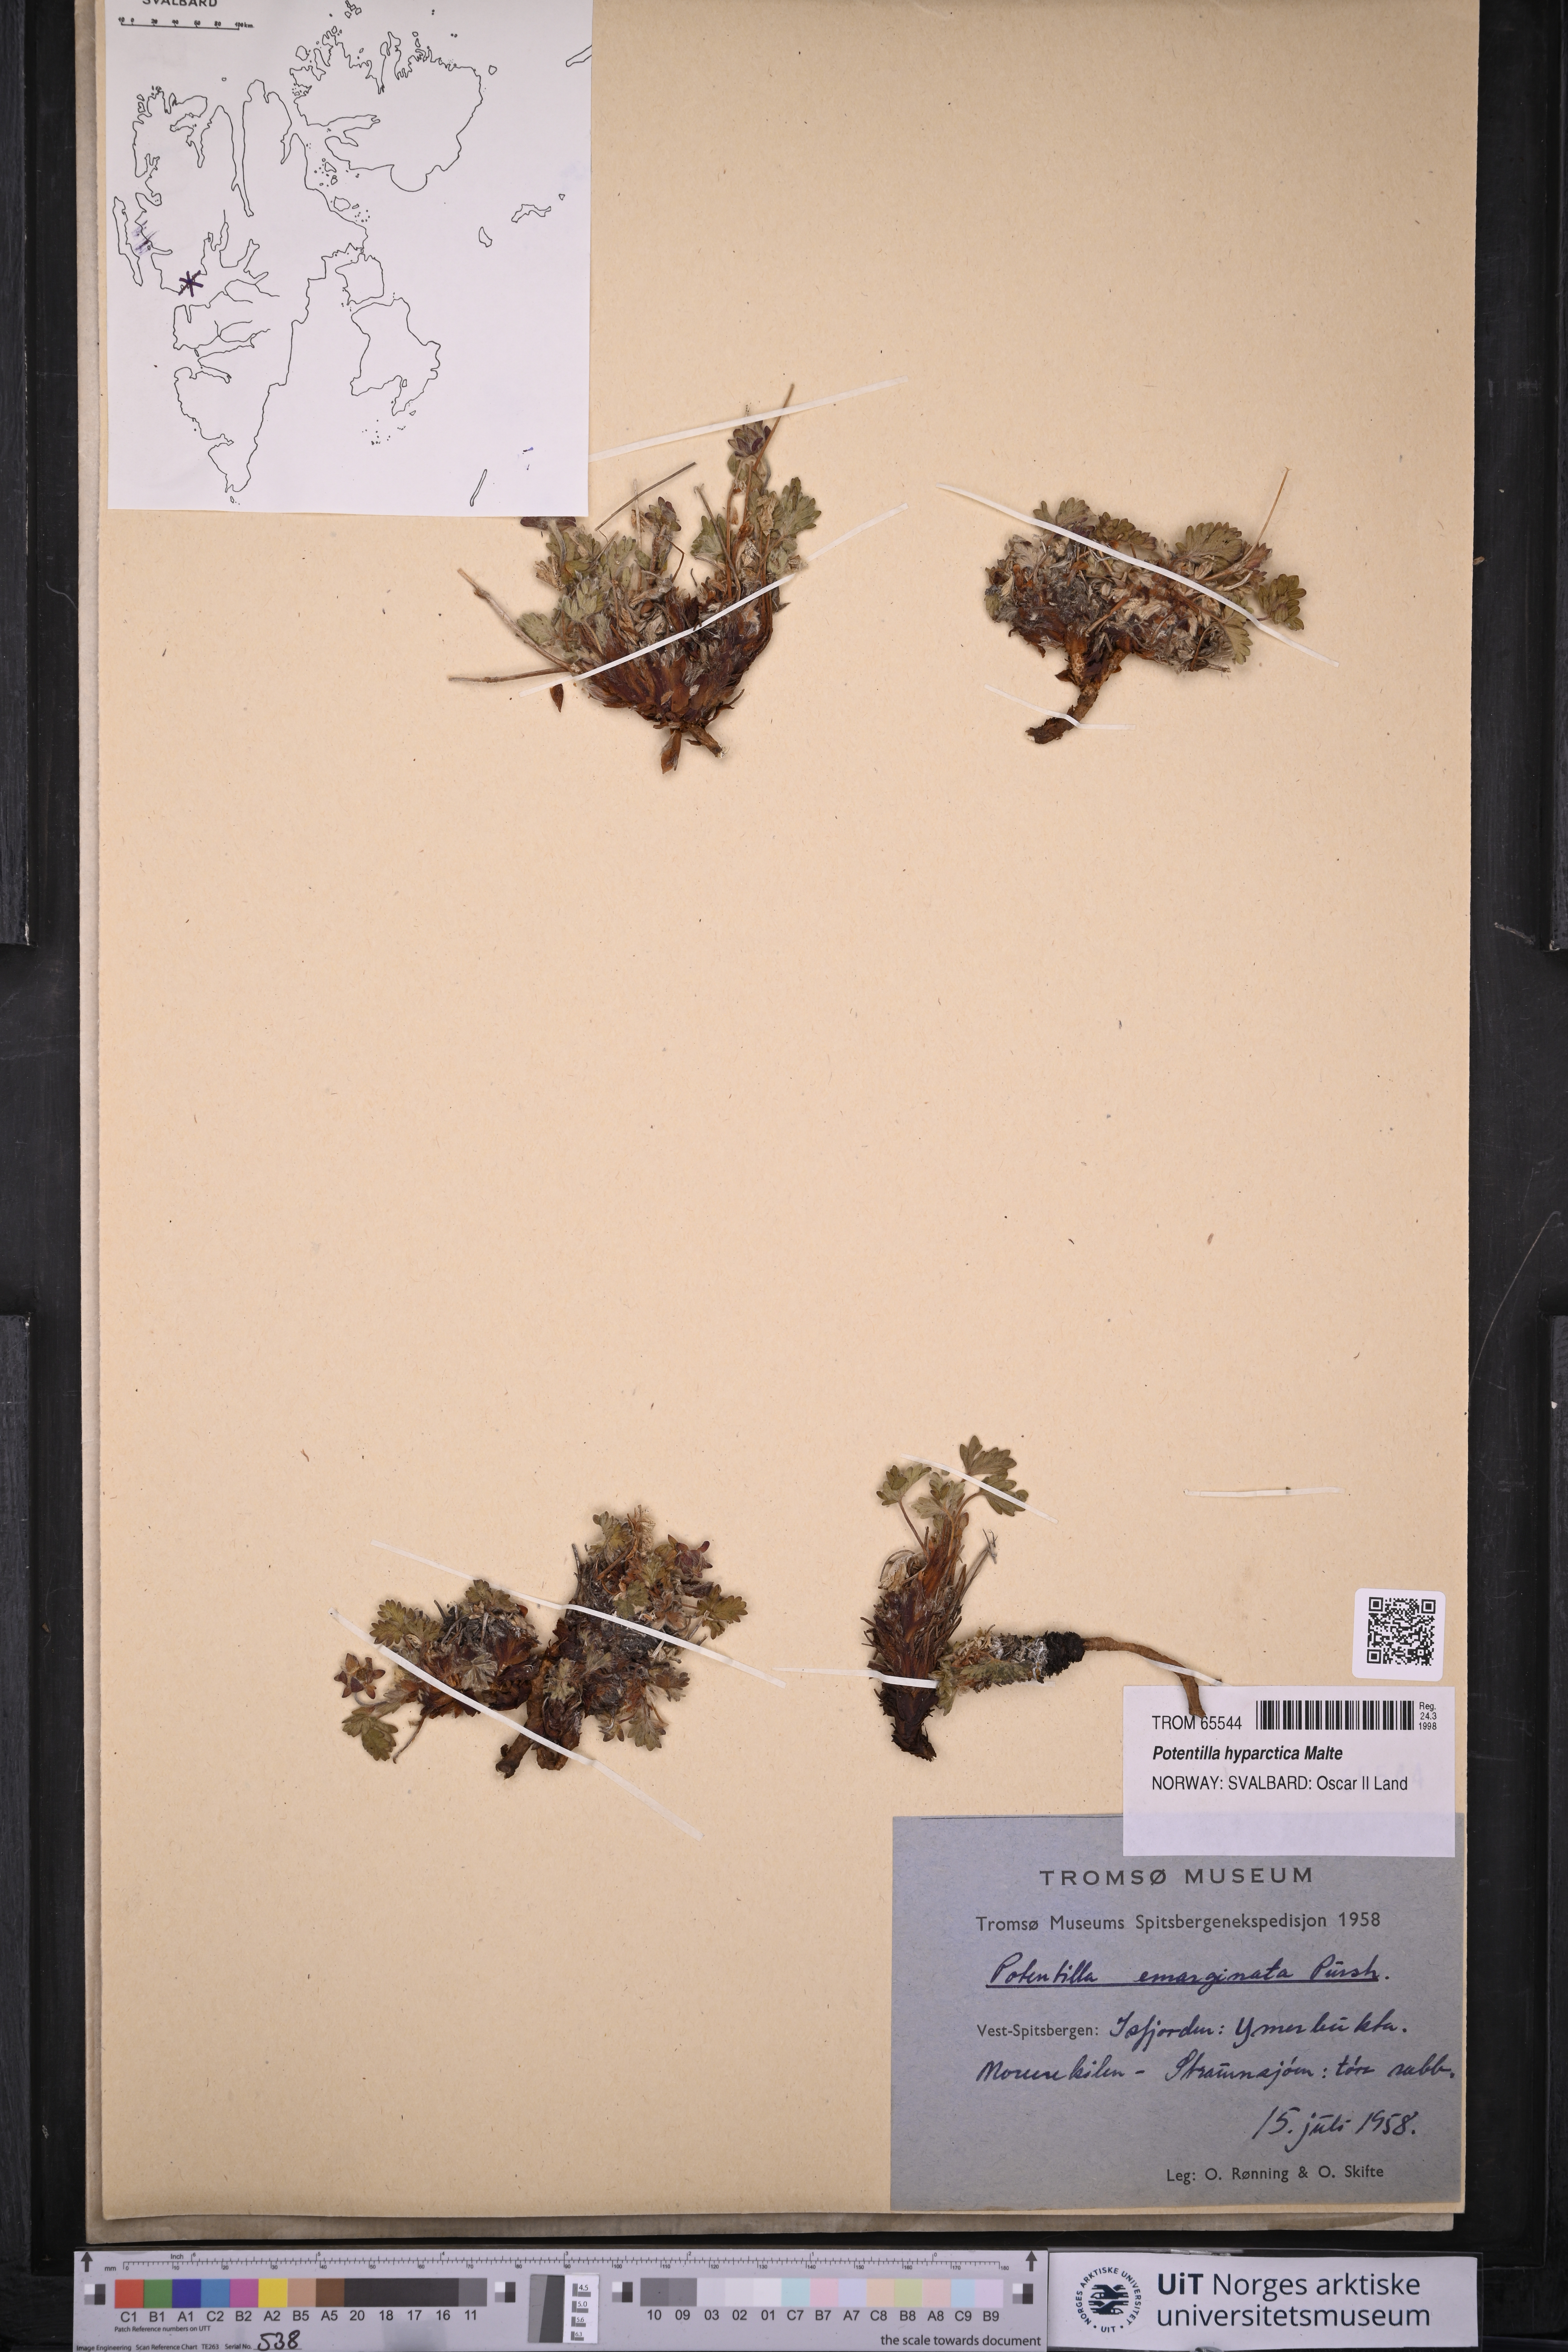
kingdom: Plantae
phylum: Tracheophyta
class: Magnoliopsida
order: Rosales
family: Rosaceae
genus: Potentilla
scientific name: Potentilla hyparctica
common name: Arctic cinquefoil
